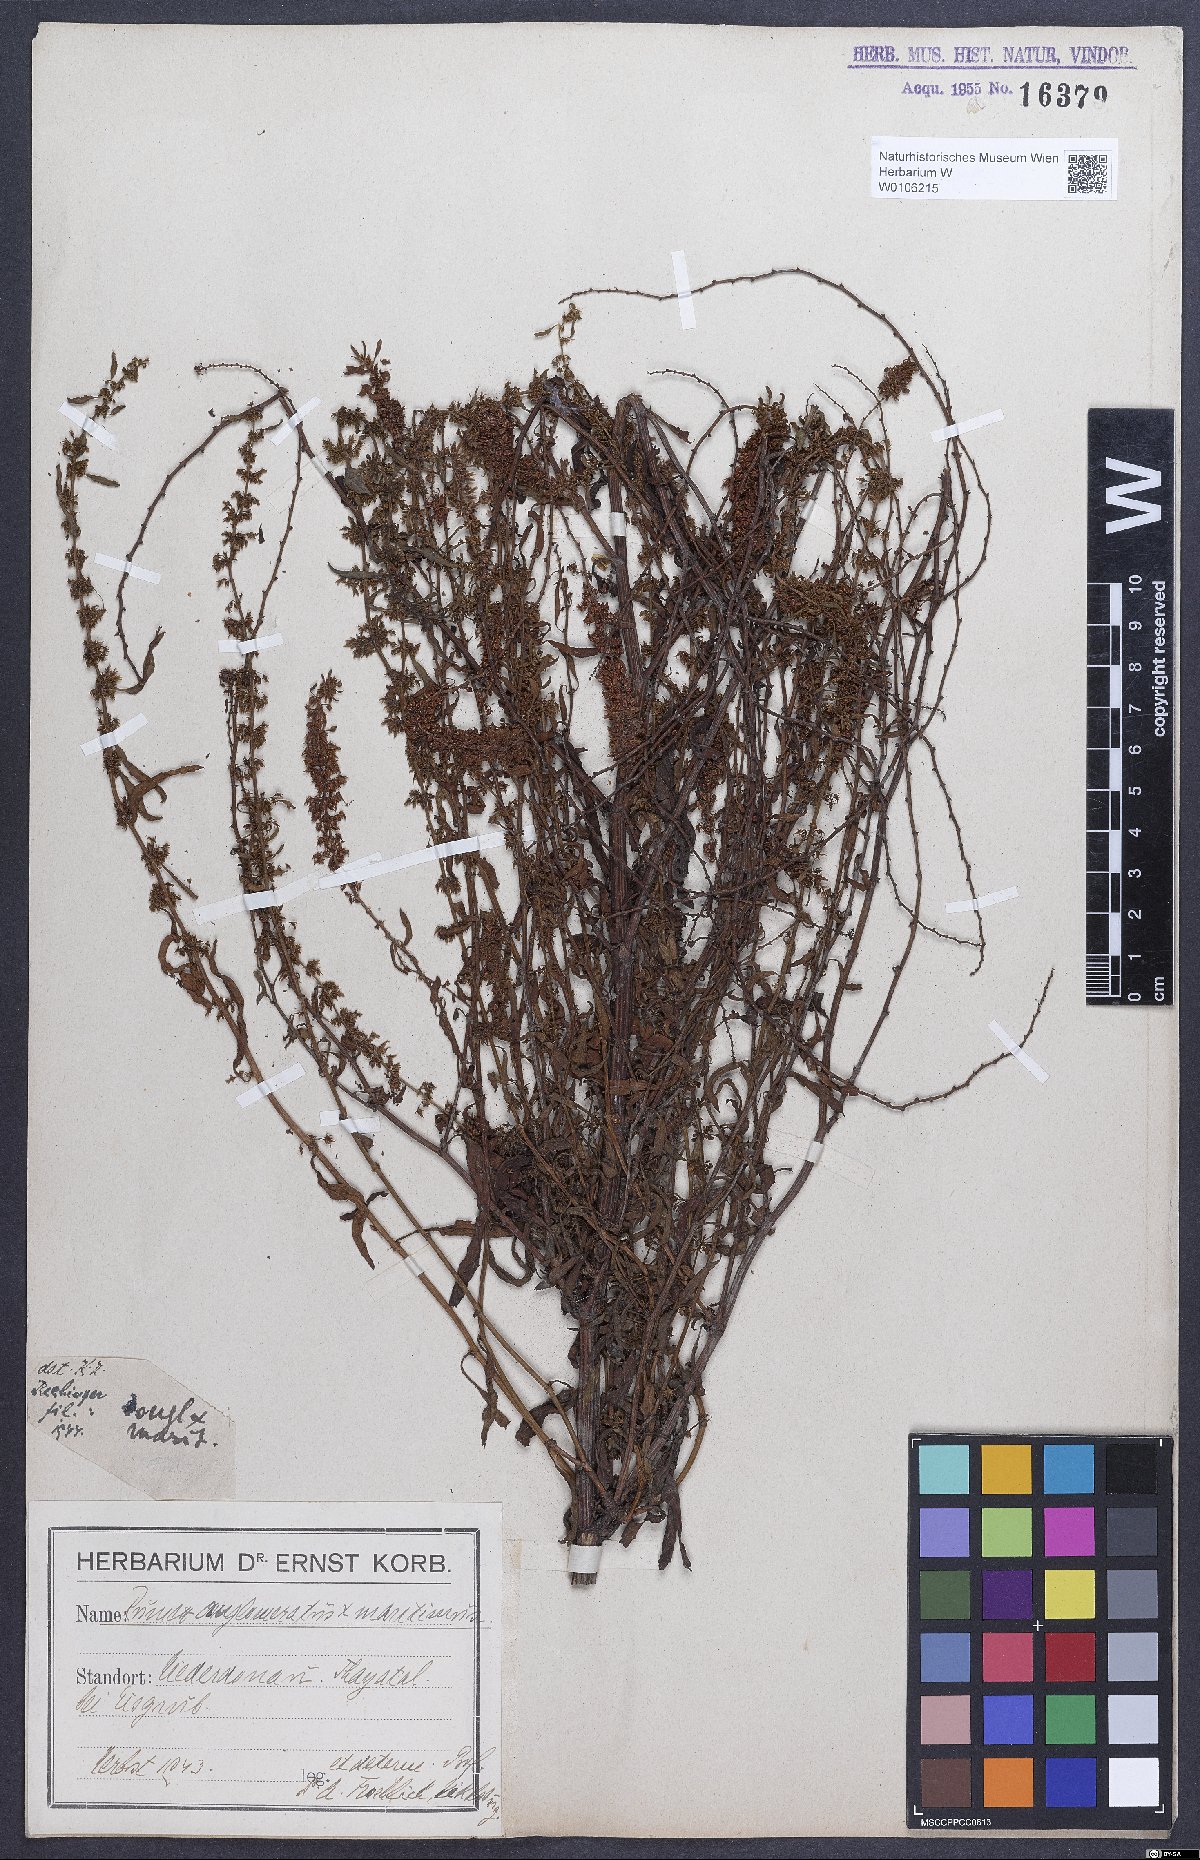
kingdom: Plantae
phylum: Tracheophyta
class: Magnoliopsida
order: Caryophyllales
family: Polygonaceae
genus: Rumex
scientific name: Rumex
